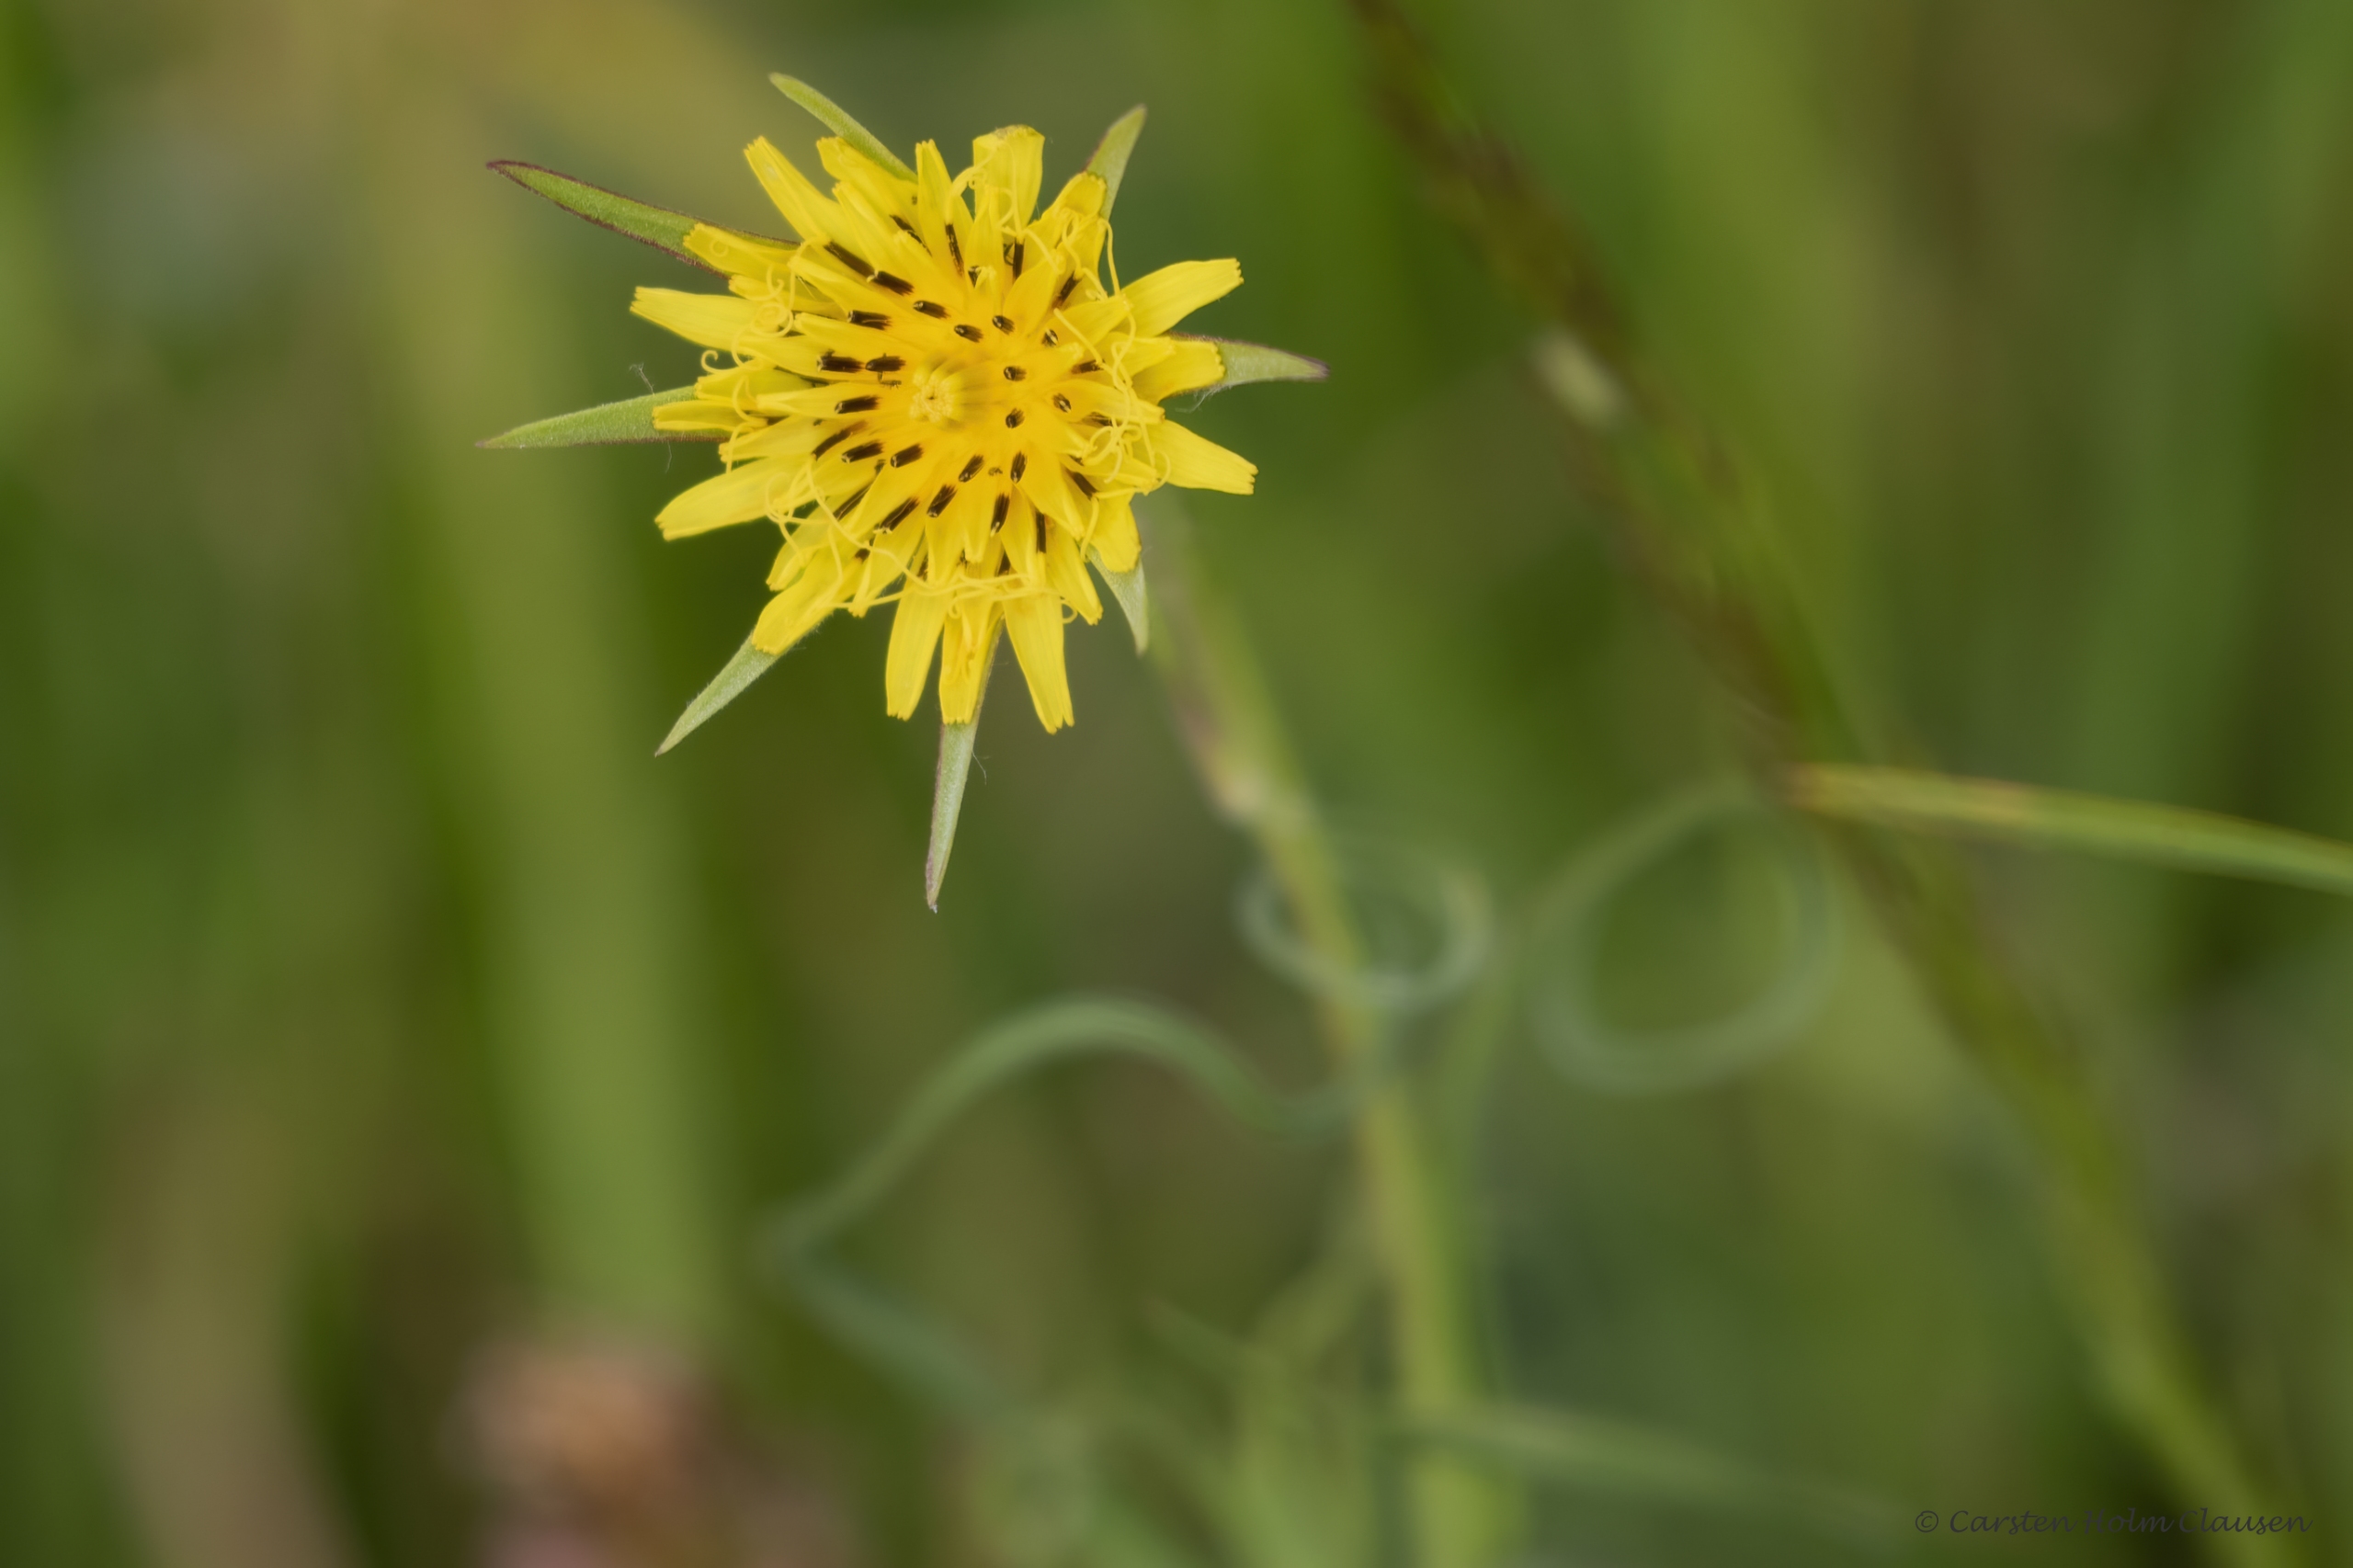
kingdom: Plantae
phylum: Tracheophyta
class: Magnoliopsida
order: Asterales
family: Asteraceae
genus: Tragopogon
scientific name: Tragopogon minor
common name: Småkronet gedeskæg
